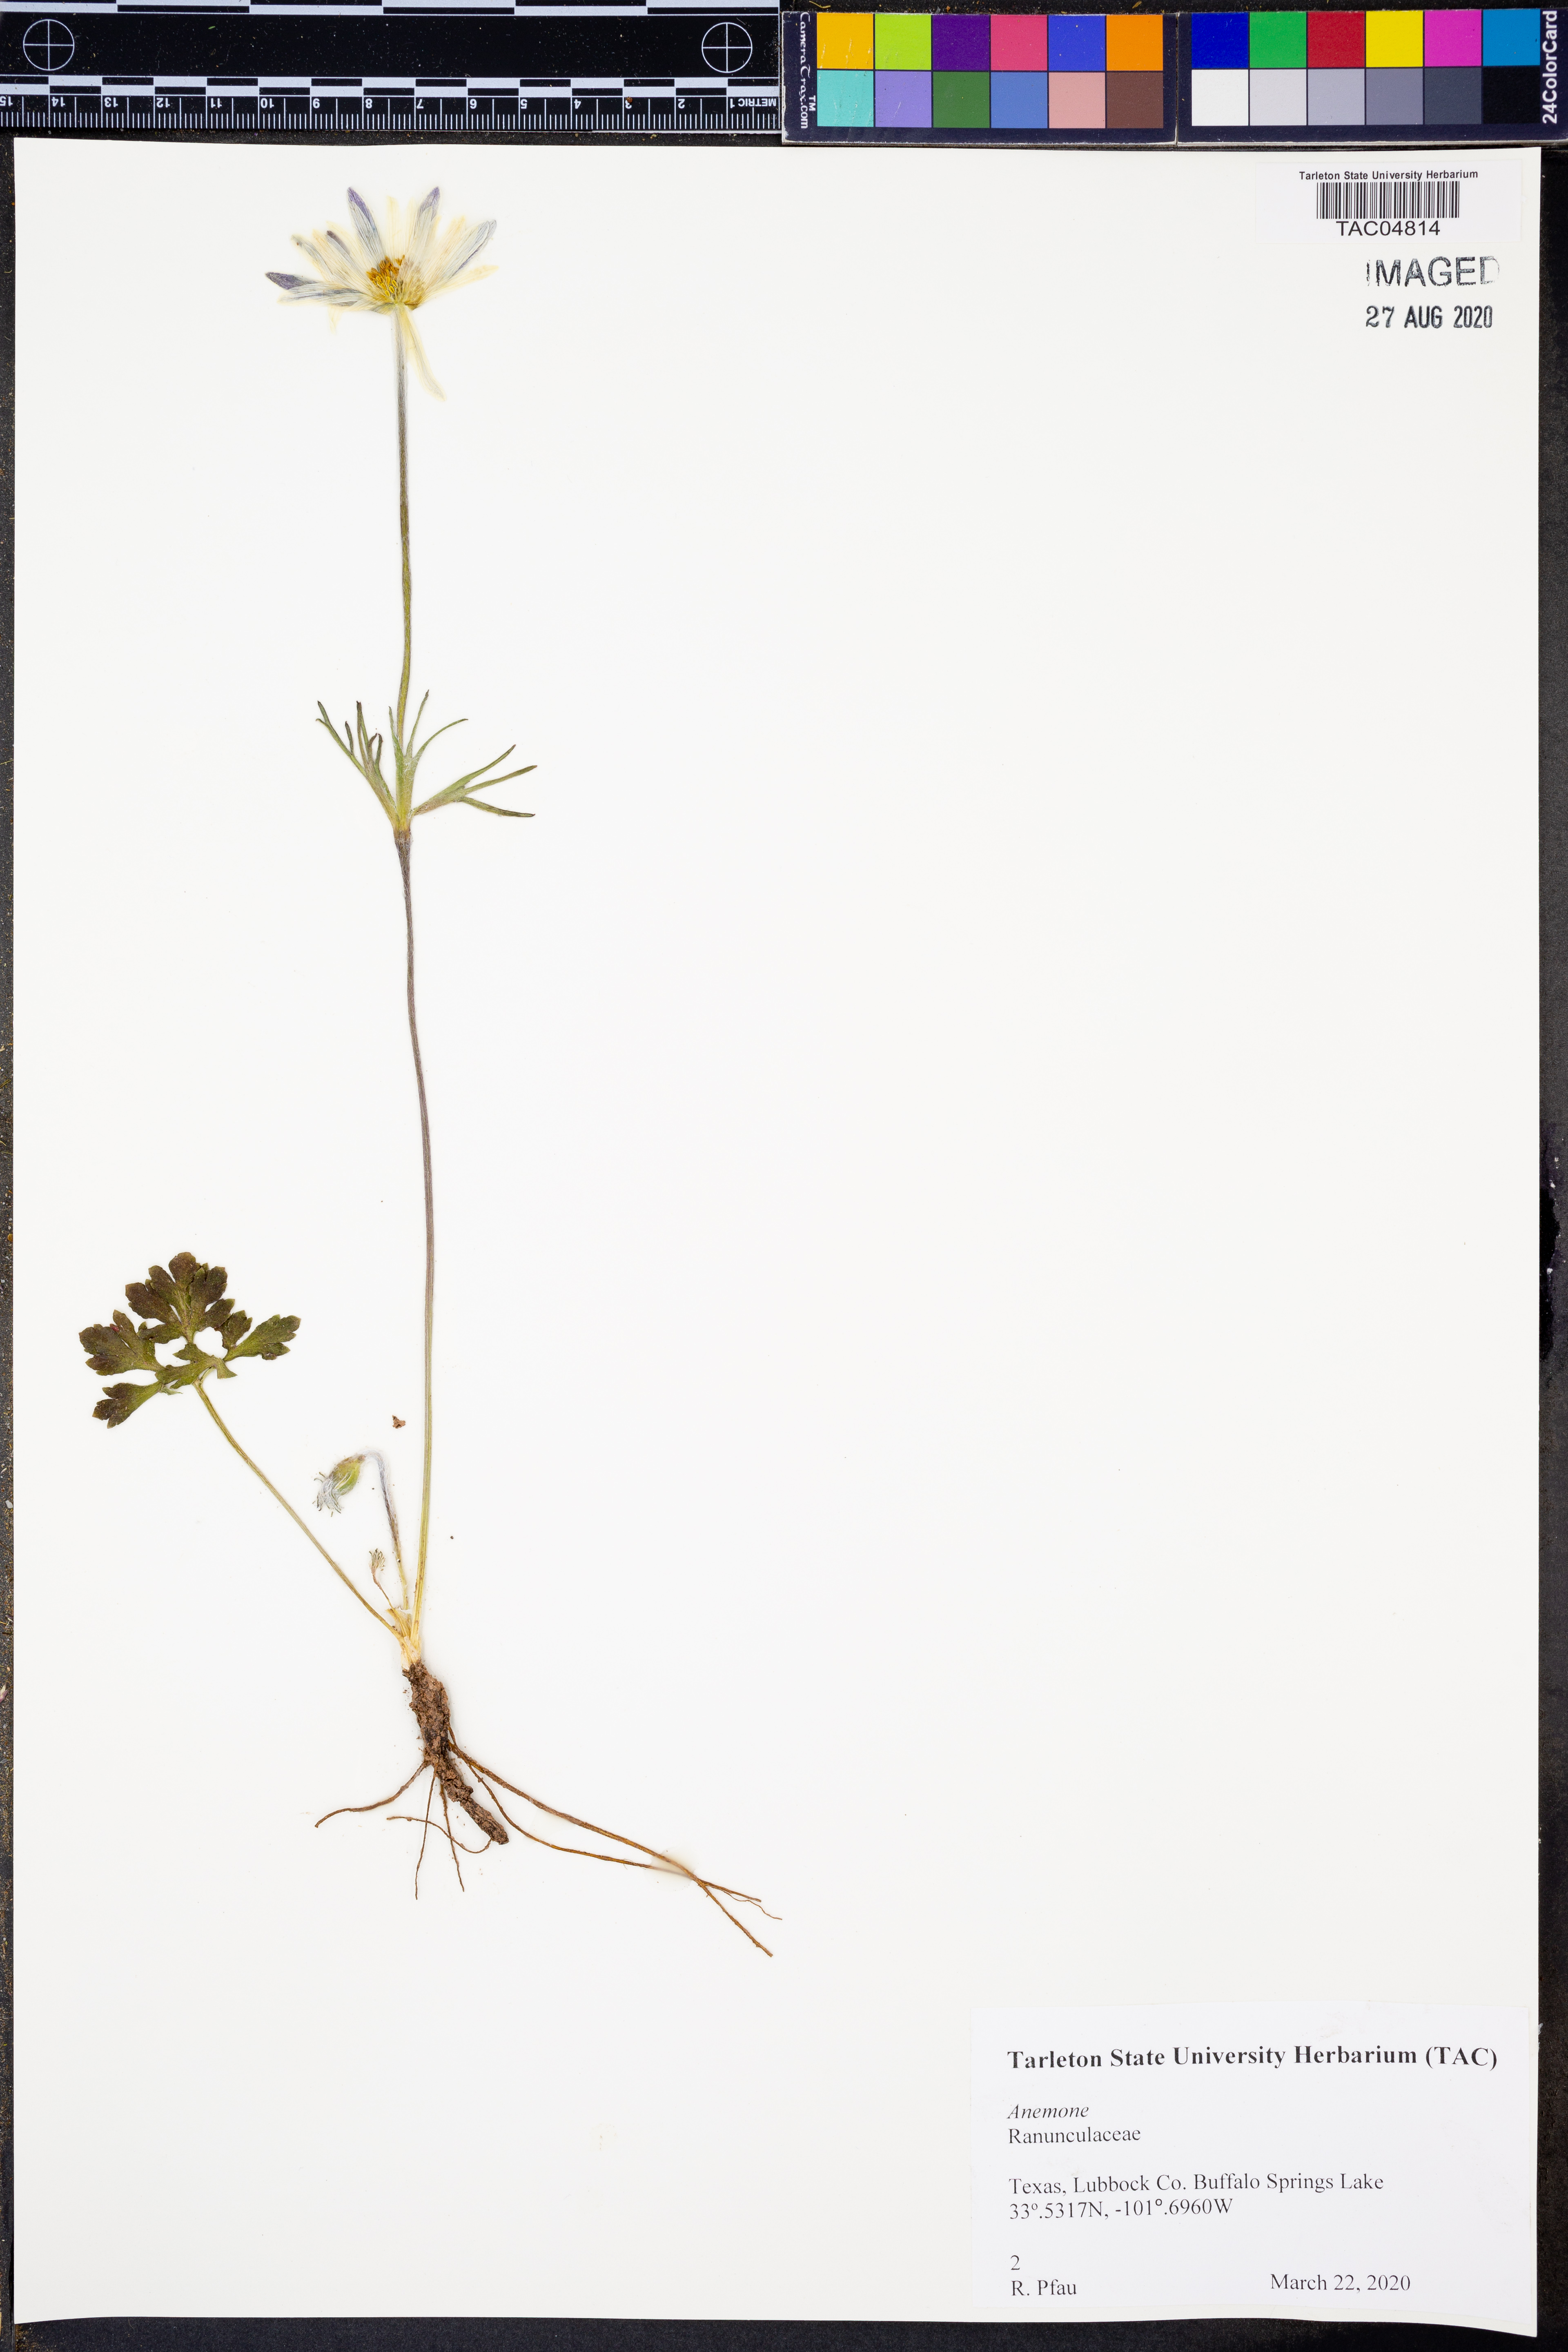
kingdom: Plantae
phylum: Tracheophyta
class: Magnoliopsida
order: Ranunculales
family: Ranunculaceae
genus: Anemone
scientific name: Anemone
